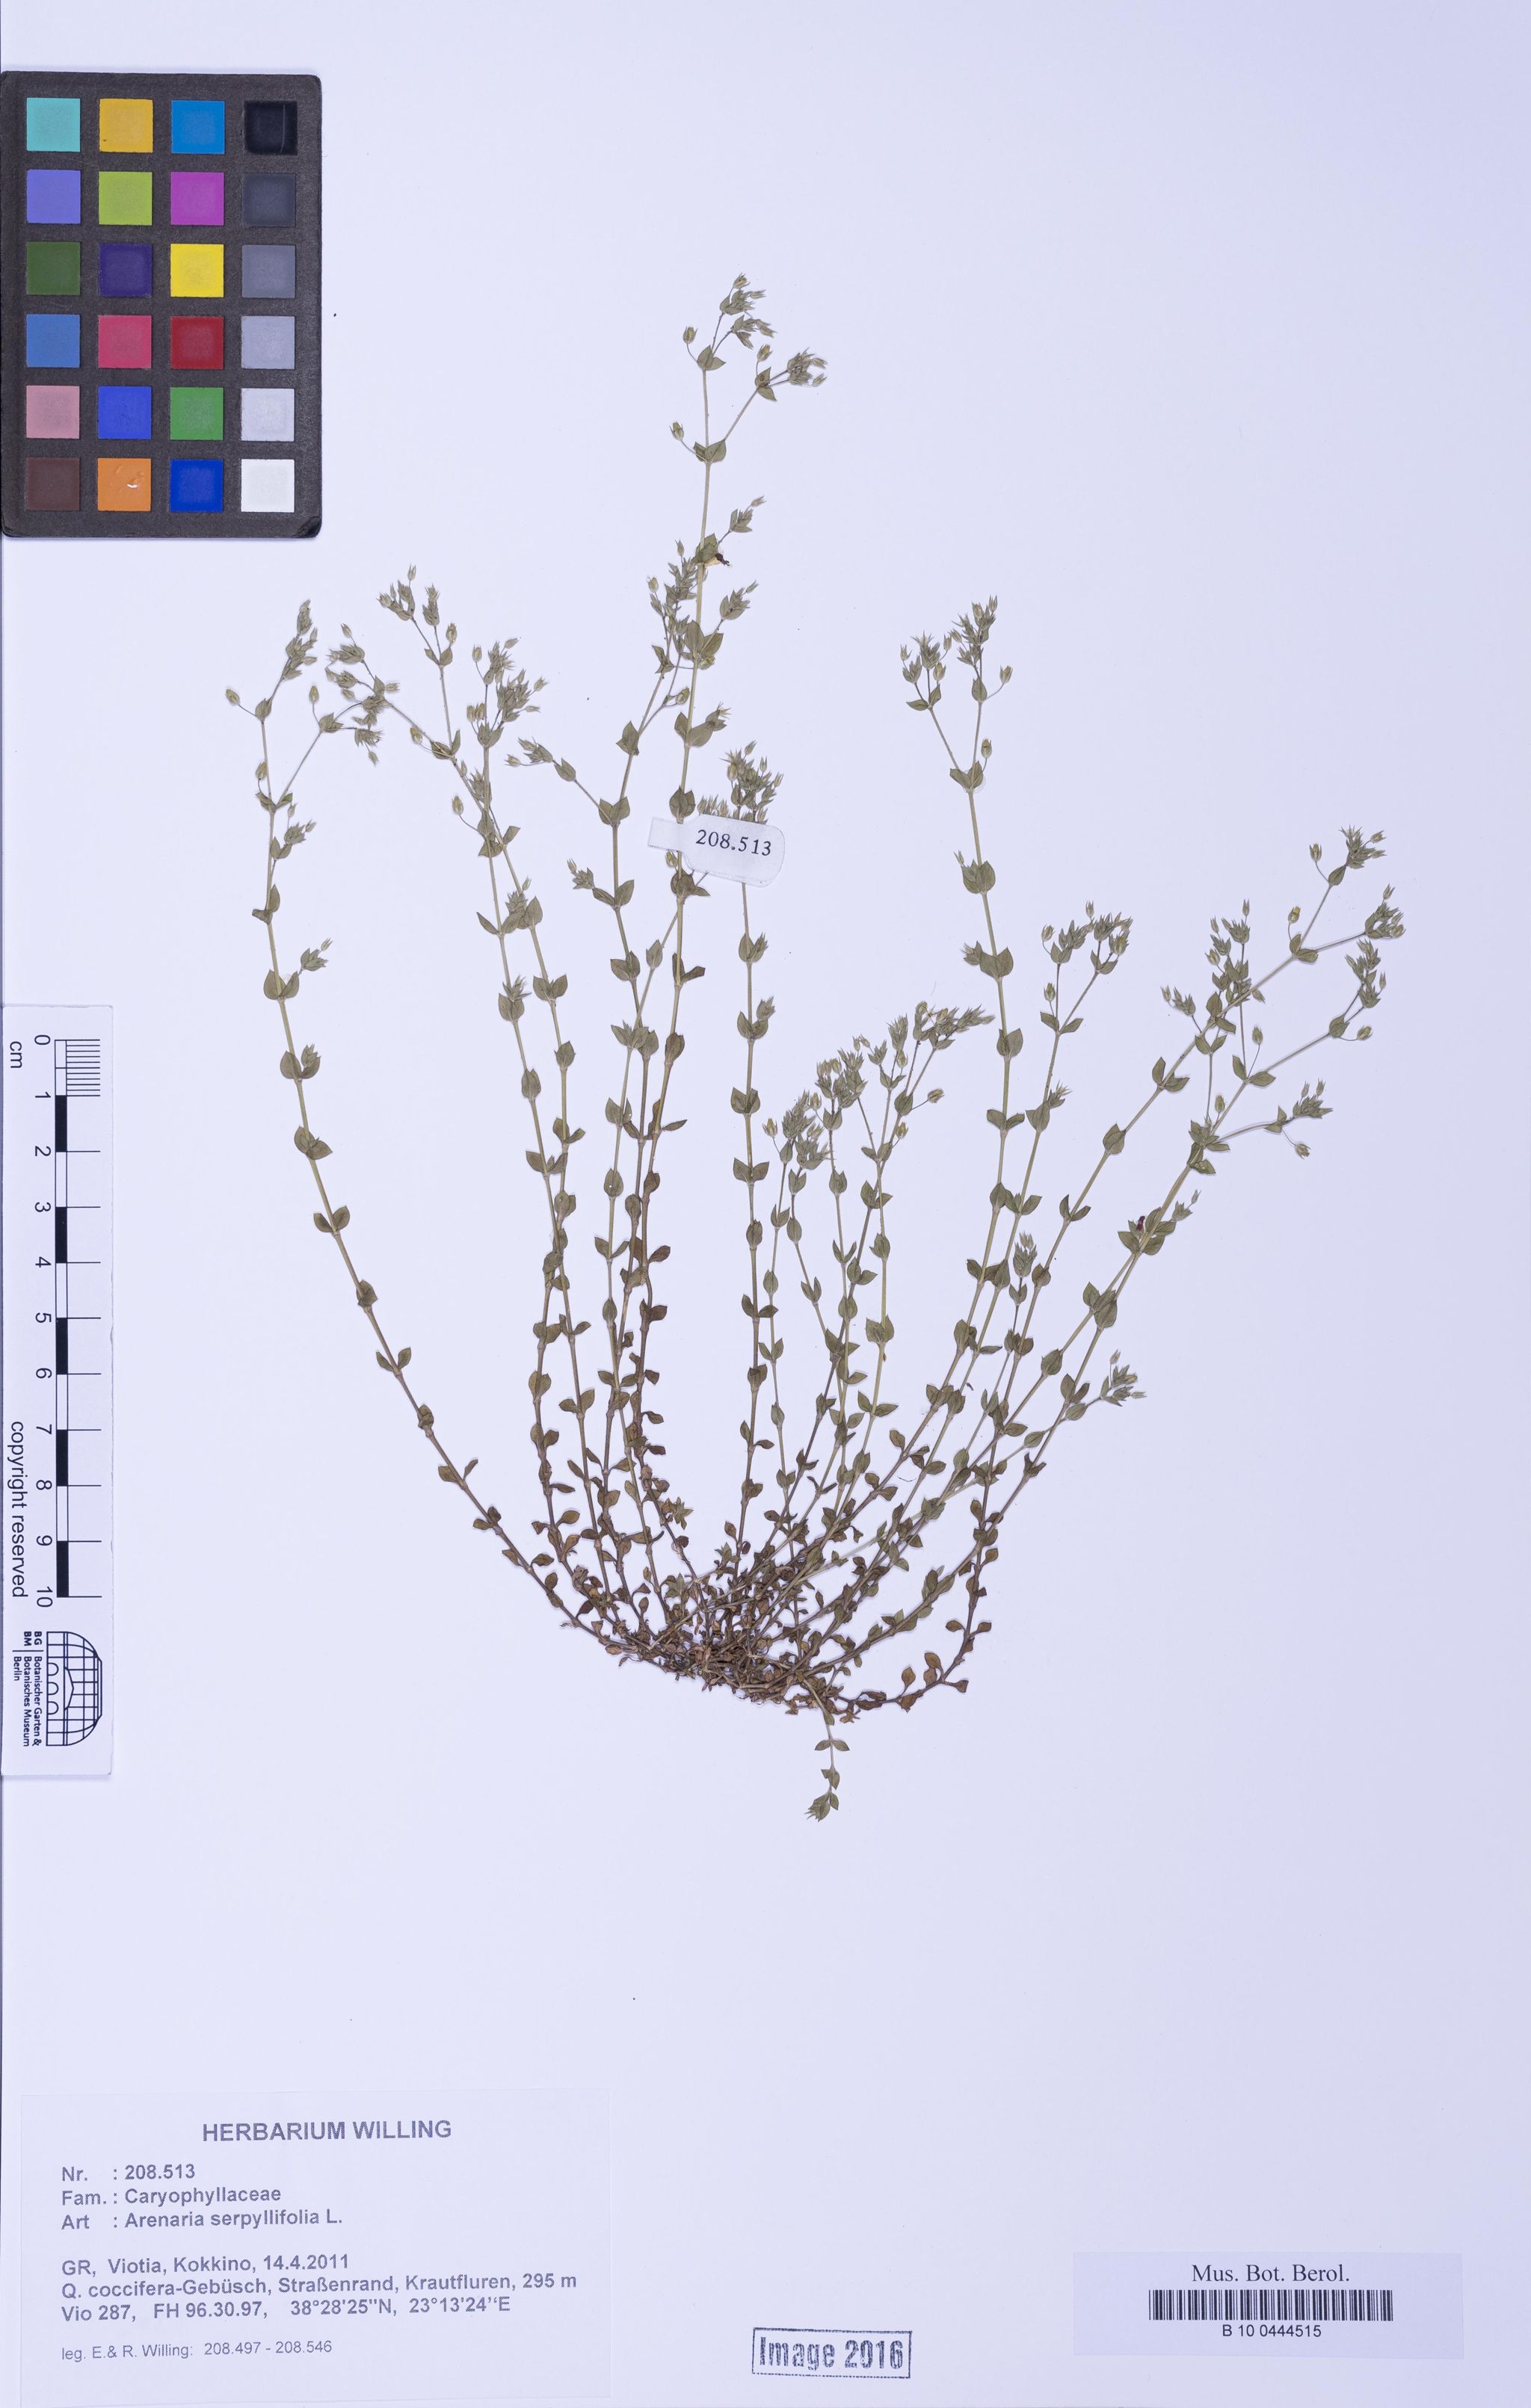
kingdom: Plantae
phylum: Tracheophyta
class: Magnoliopsida
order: Caryophyllales
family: Caryophyllaceae
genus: Arenaria
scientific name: Arenaria serpyllifolia
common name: Thyme-leaved sandwort
